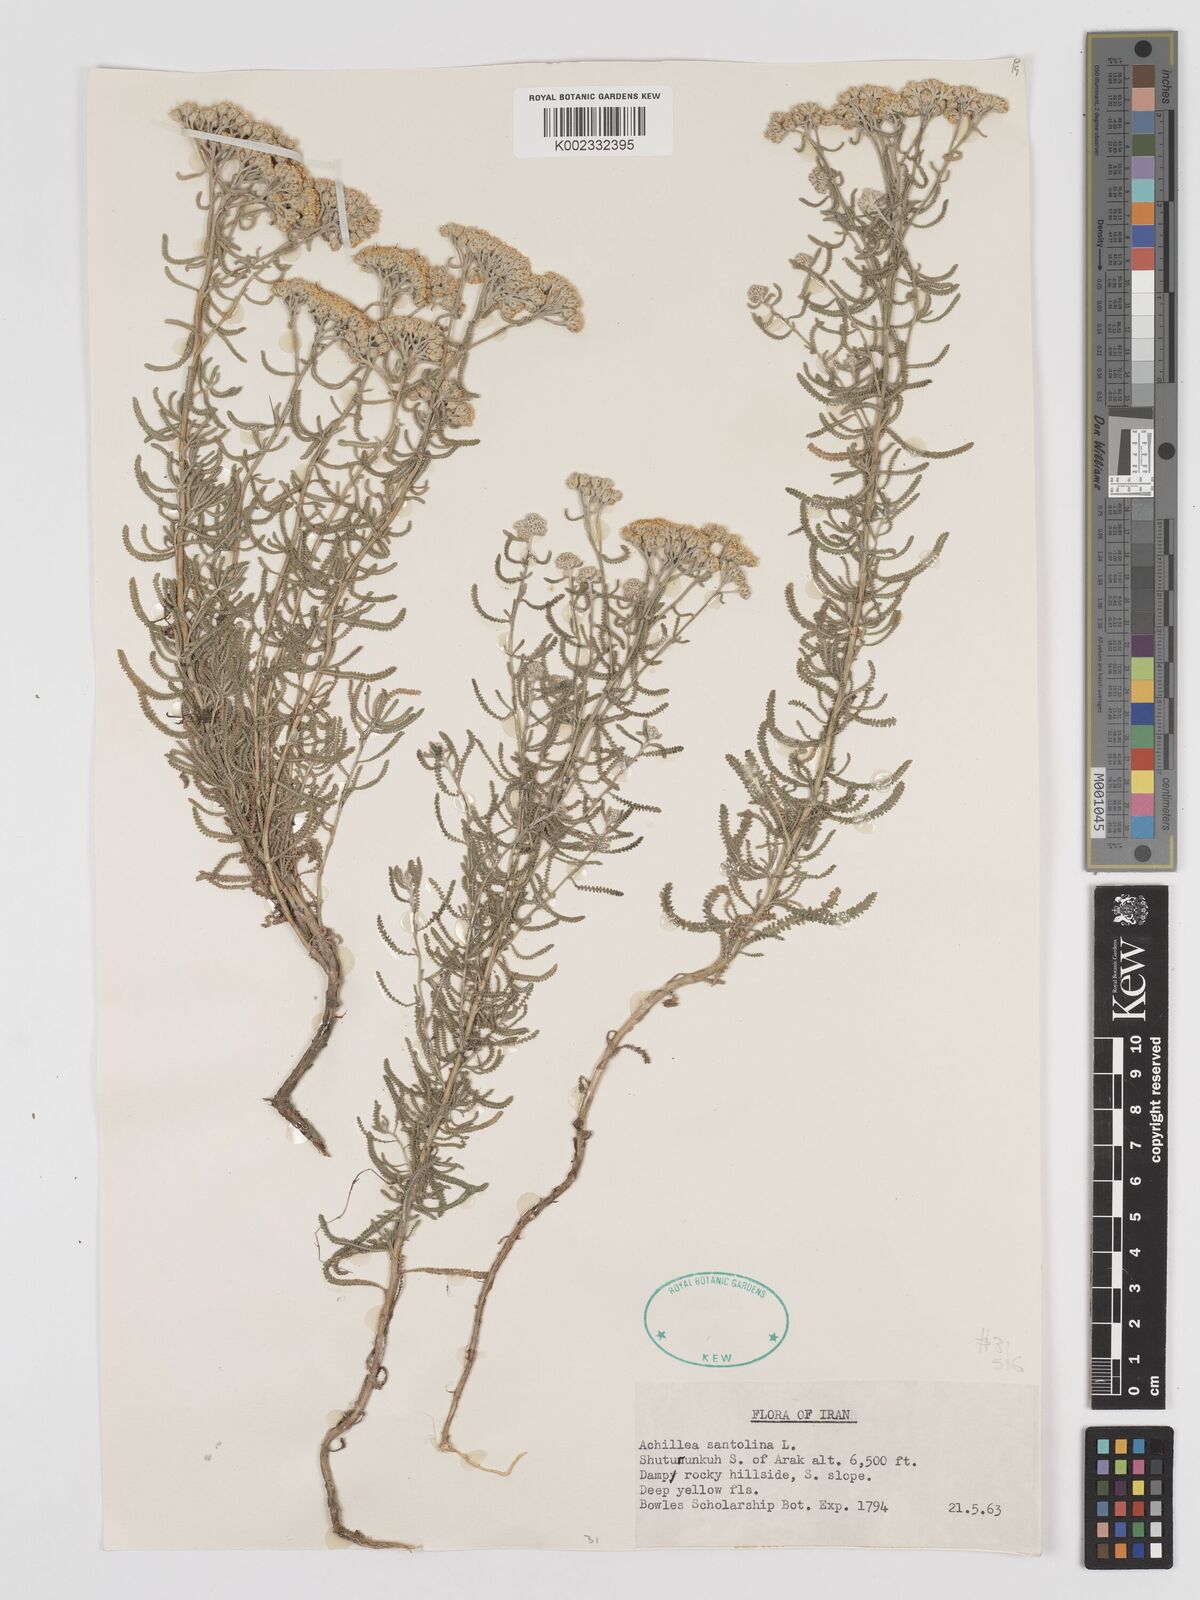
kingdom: Plantae
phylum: Tracheophyta
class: Magnoliopsida
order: Asterales
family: Asteraceae
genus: Achillea
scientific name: Achillea cretica
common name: Chamomile-leaved lavender-cotton
